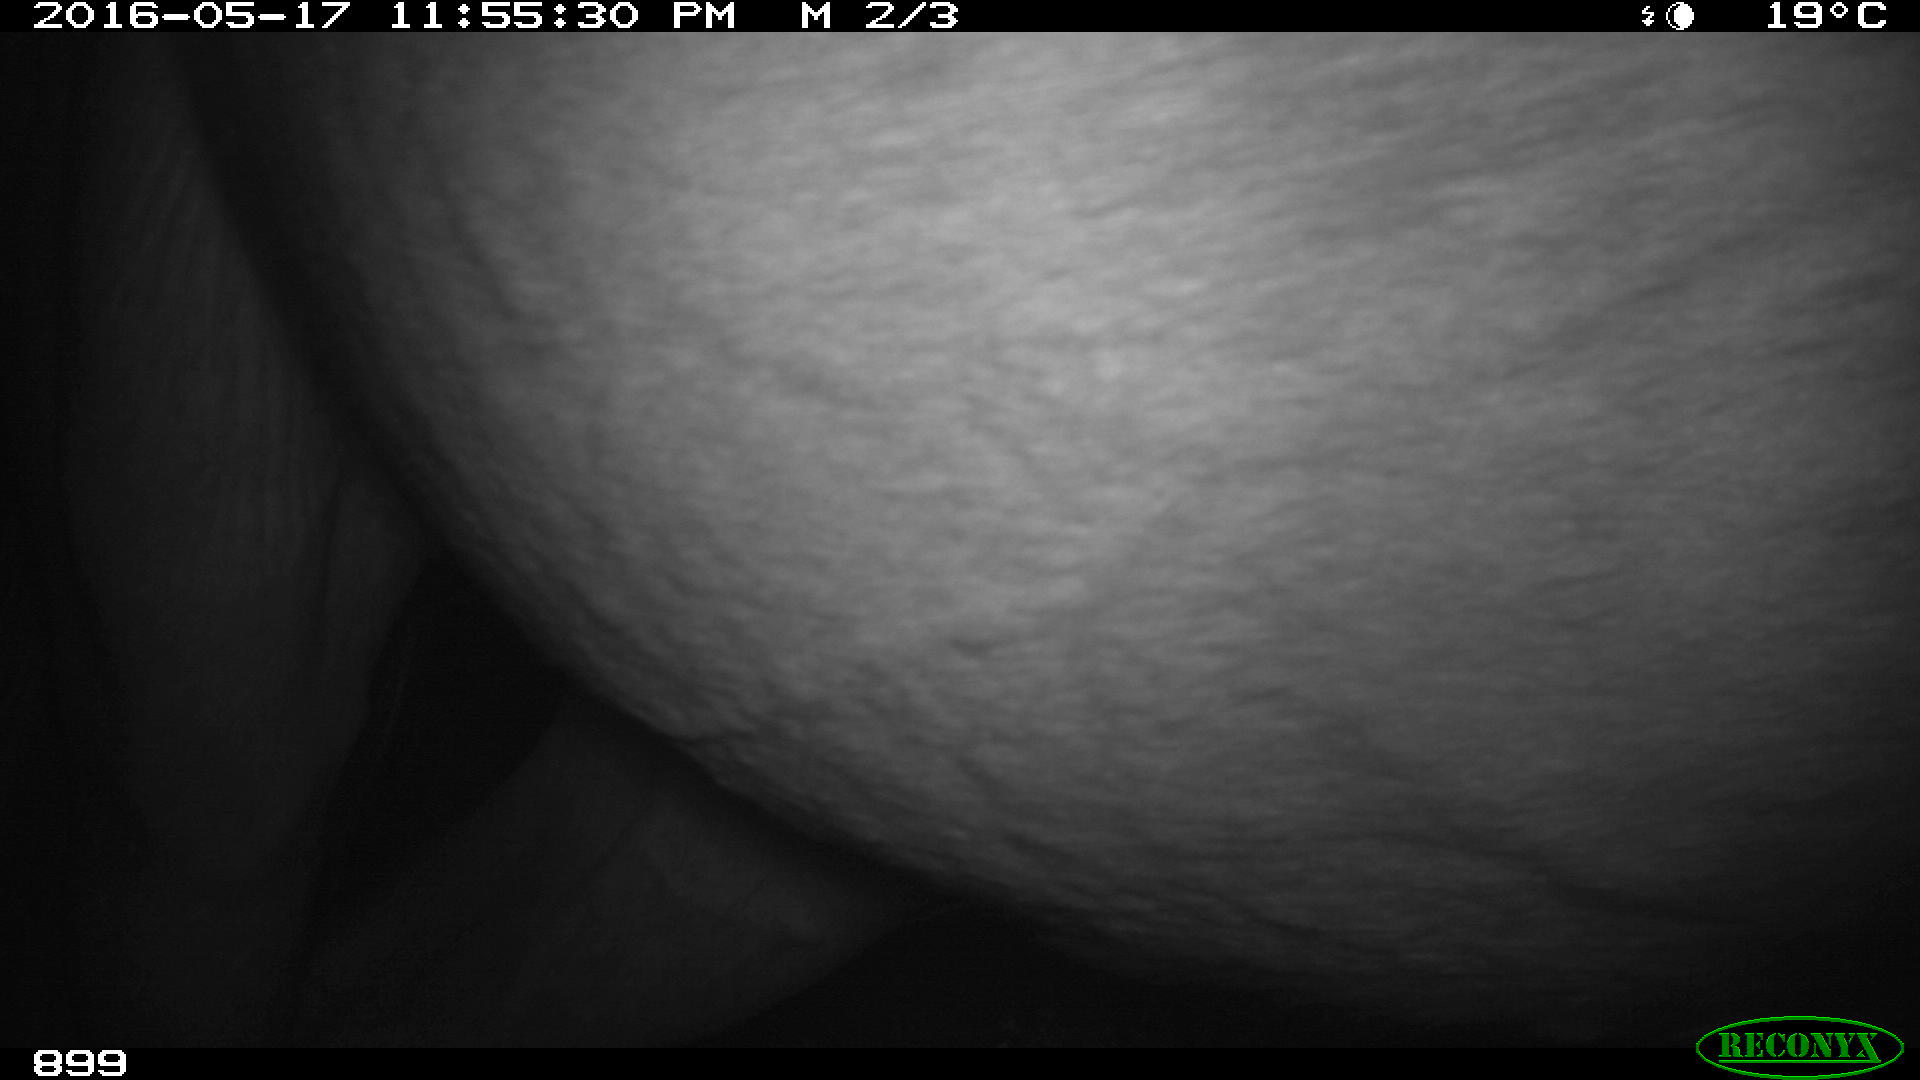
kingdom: Animalia
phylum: Chordata
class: Mammalia
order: Perissodactyla
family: Equidae
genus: Equus
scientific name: Equus caballus
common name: Horse
